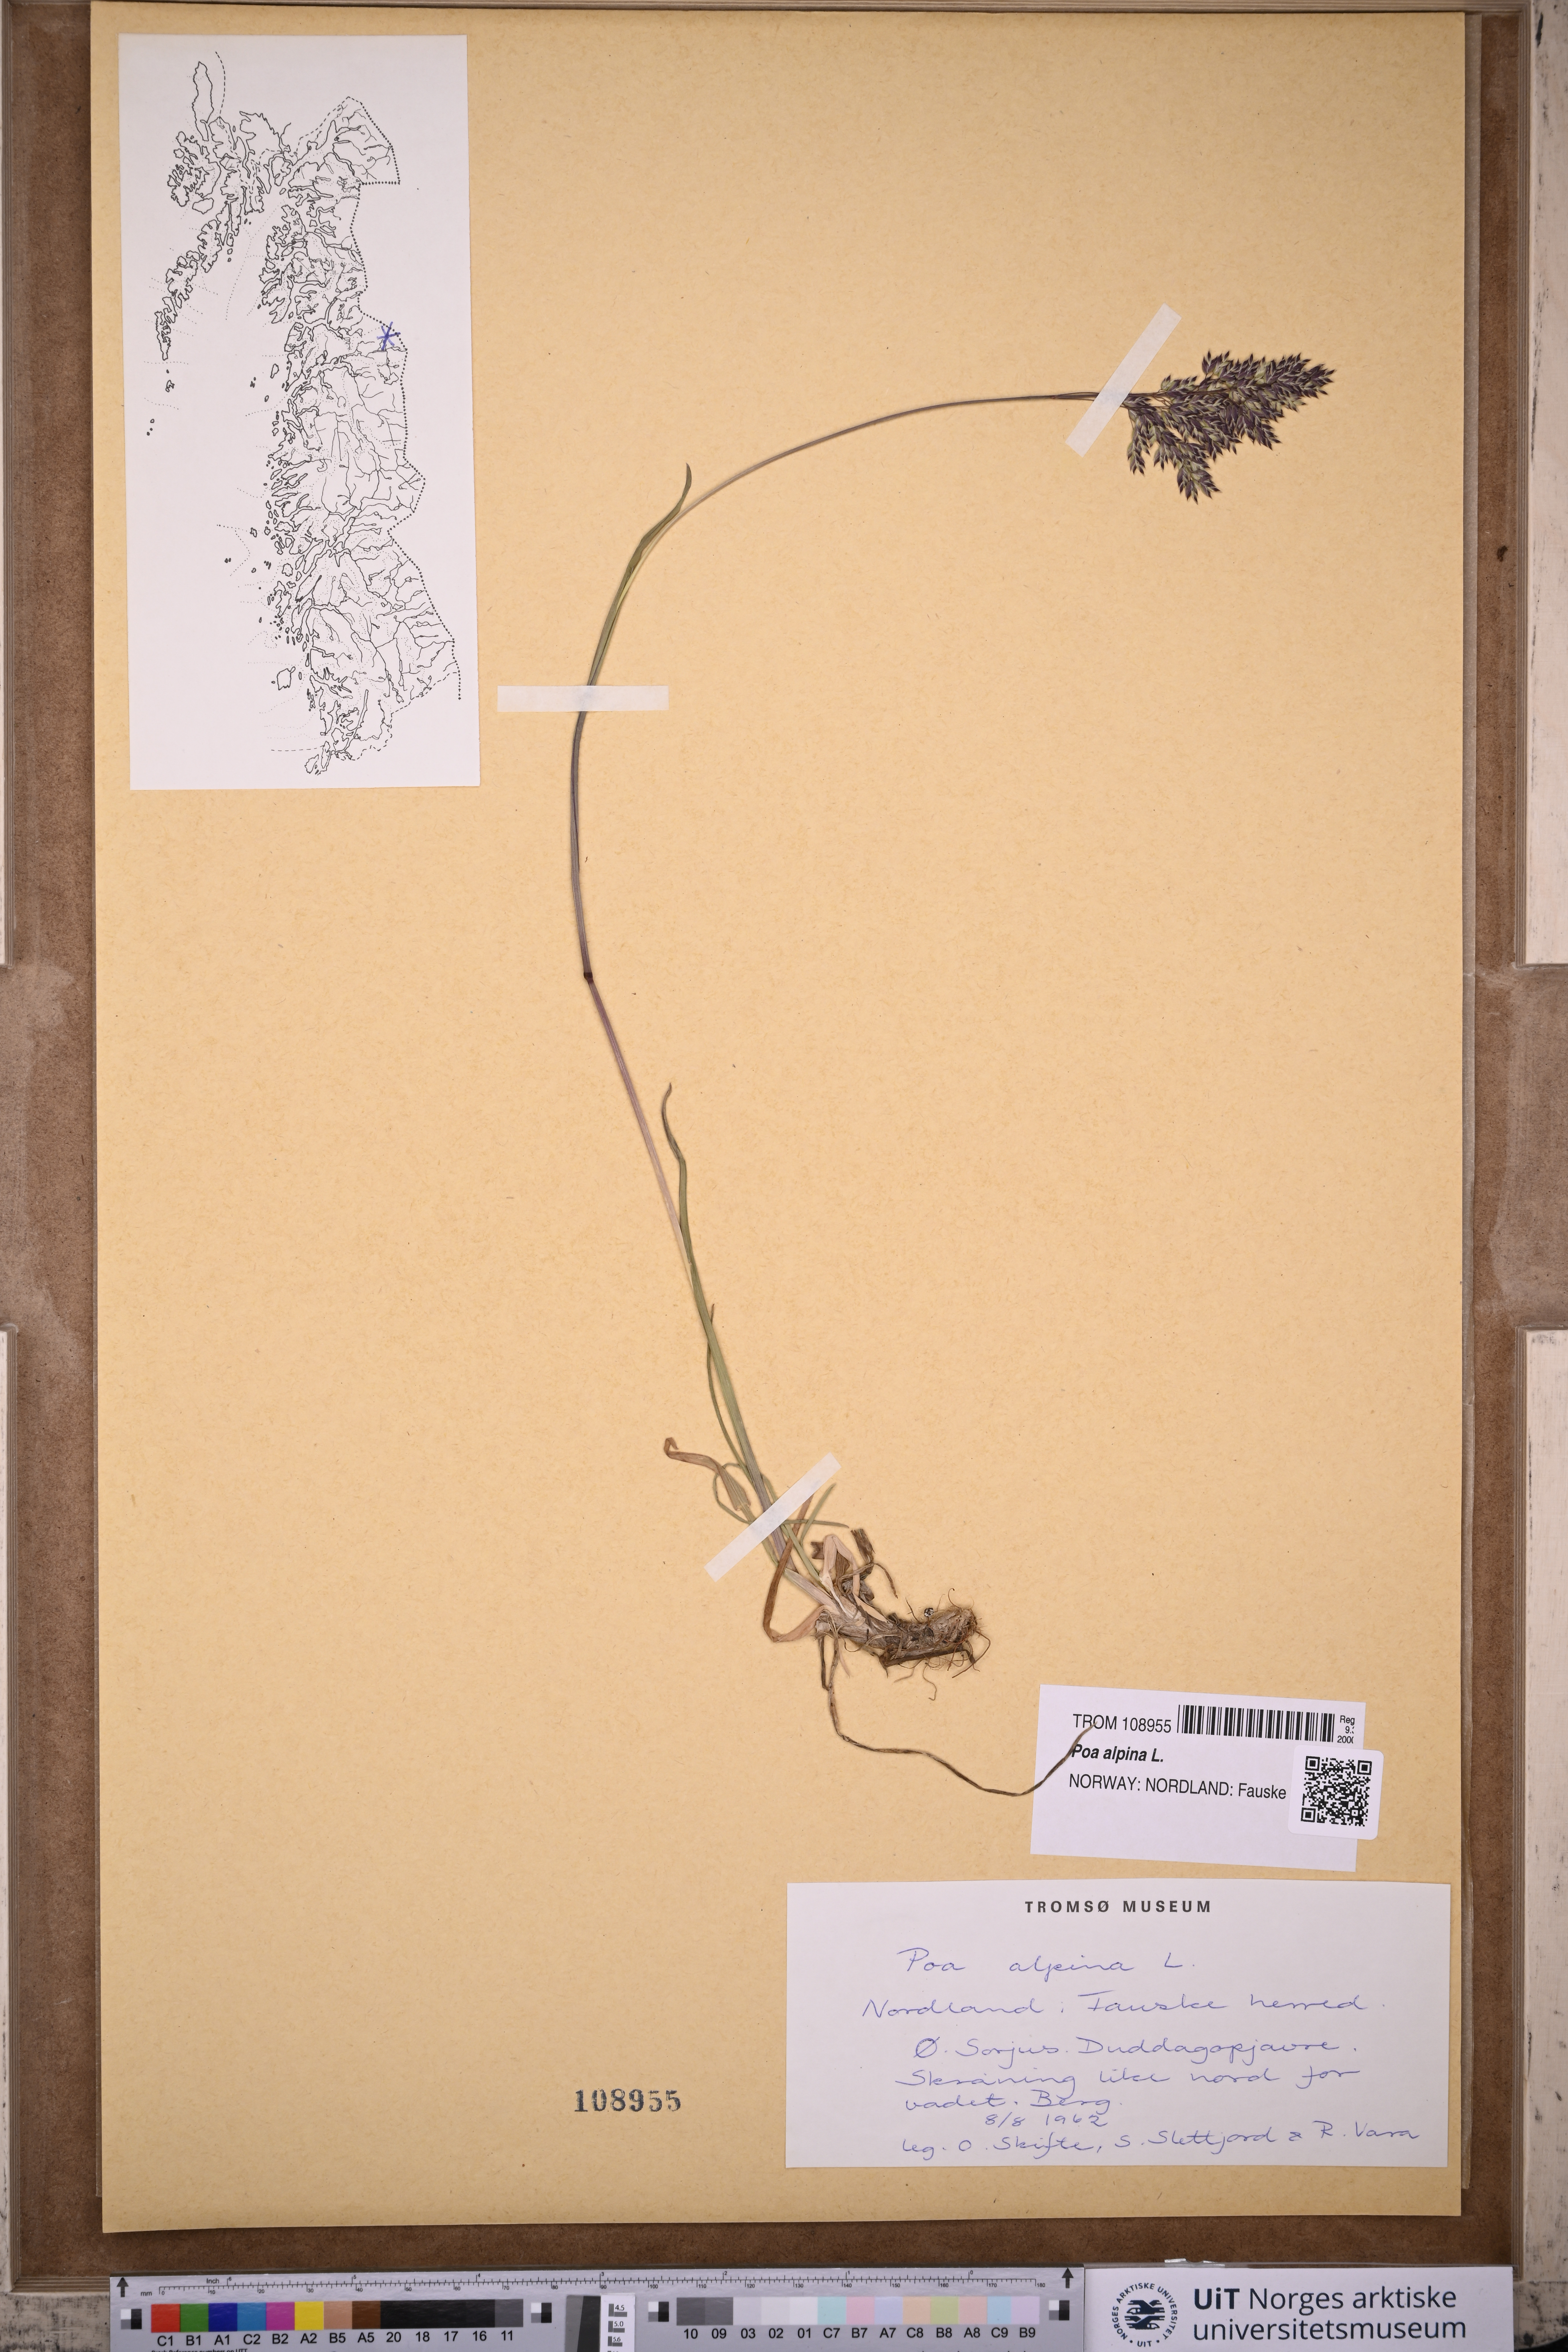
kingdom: Plantae
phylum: Tracheophyta
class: Liliopsida
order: Poales
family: Poaceae
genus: Poa
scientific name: Poa alpina
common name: Alpine bluegrass
